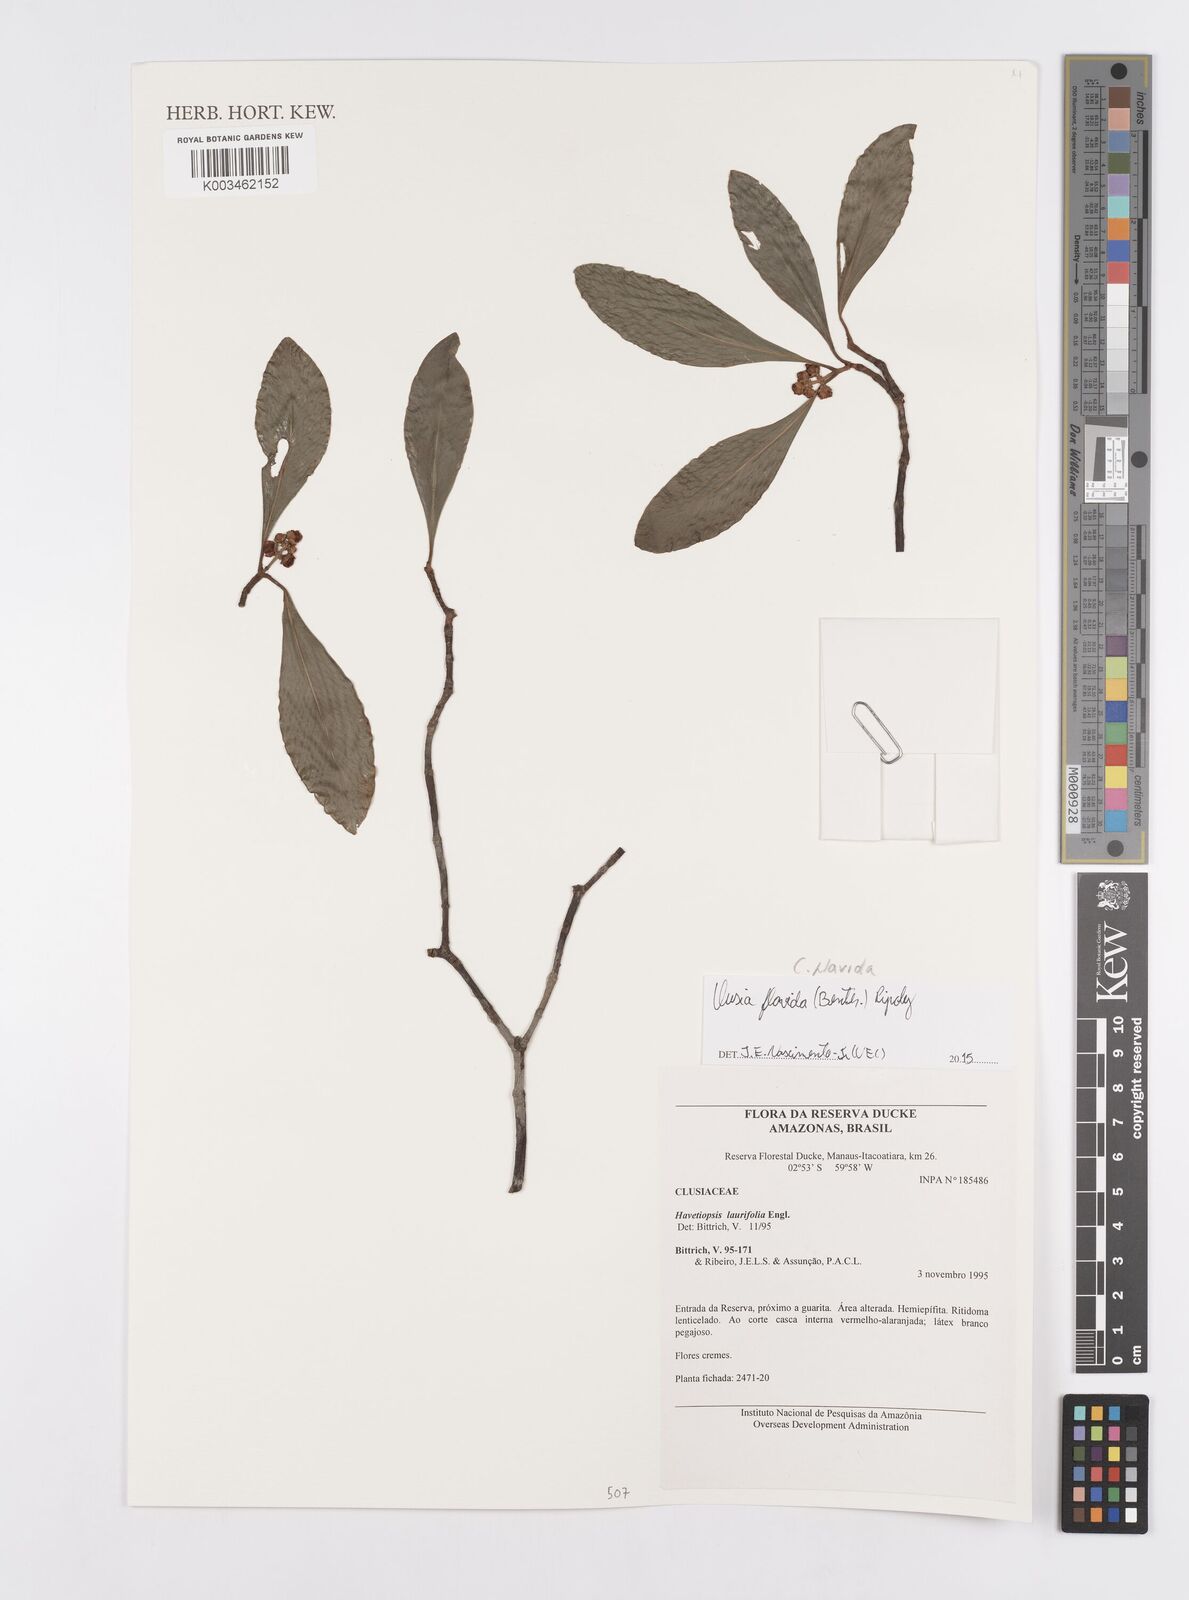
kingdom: Plantae
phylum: Tracheophyta
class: Magnoliopsida
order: Malpighiales
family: Clusiaceae
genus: Clusia
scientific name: Clusia flavida
